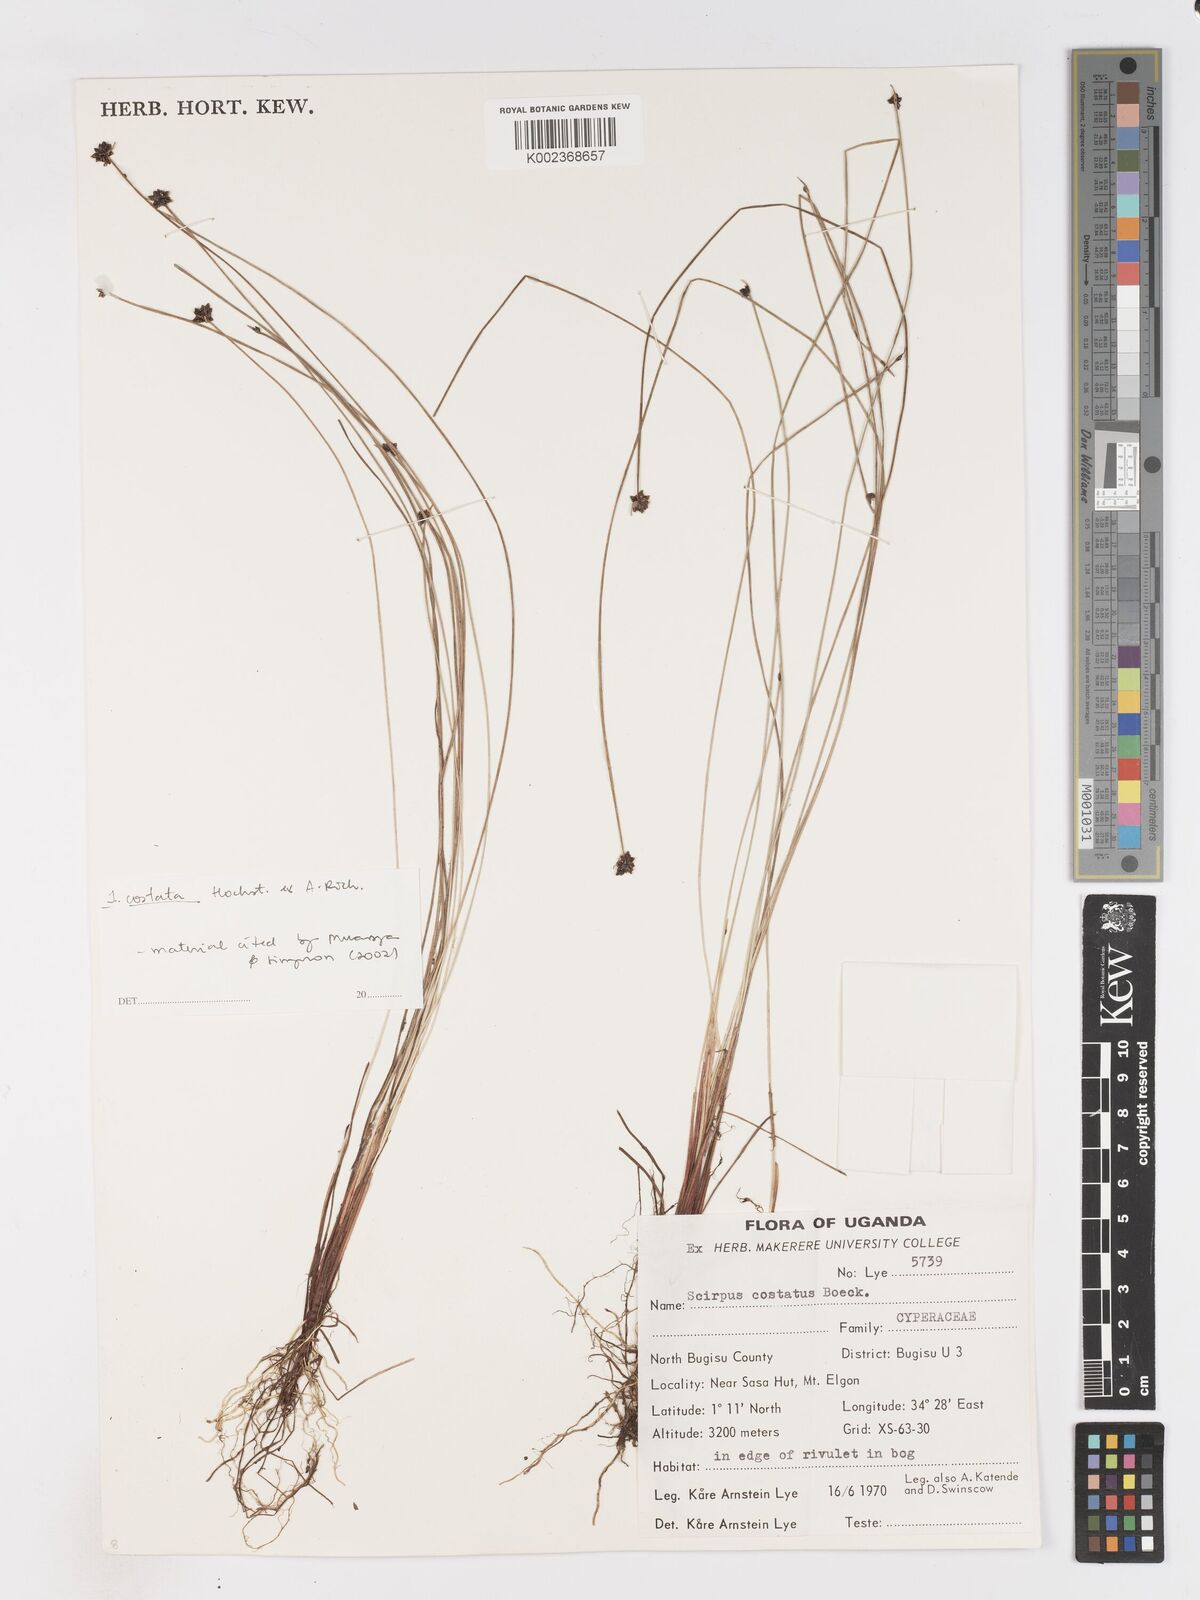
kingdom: Plantae
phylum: Tracheophyta
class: Liliopsida
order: Poales
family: Cyperaceae
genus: Isolepis
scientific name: Isolepis costata
